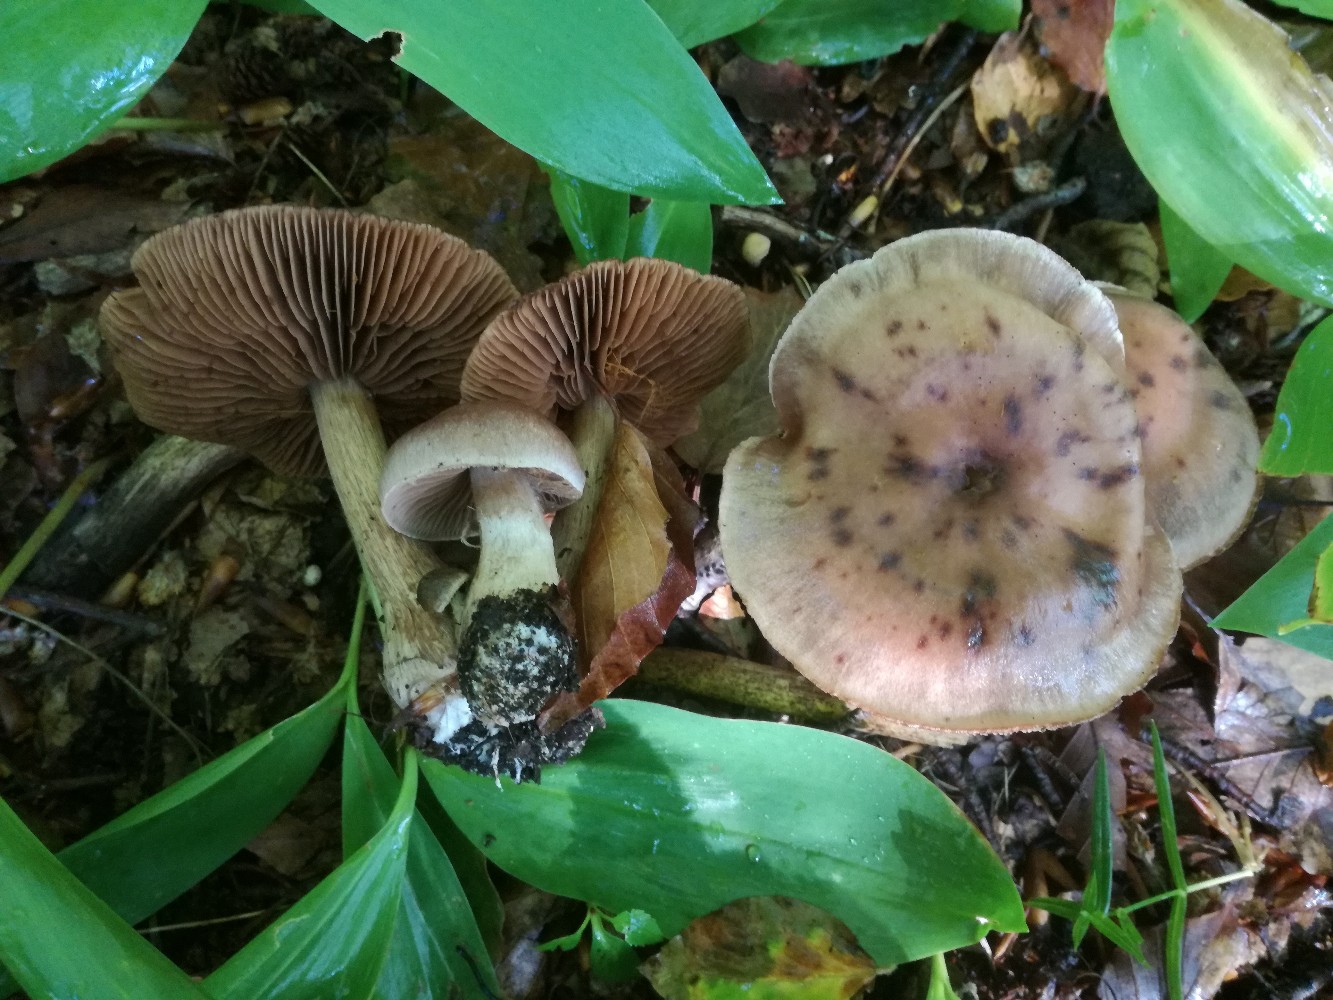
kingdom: Fungi
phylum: Basidiomycota
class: Agaricomycetes
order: Agaricales
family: Cortinariaceae
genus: Cortinarius
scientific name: Cortinarius heatherae
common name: mørkprikket slørhat
